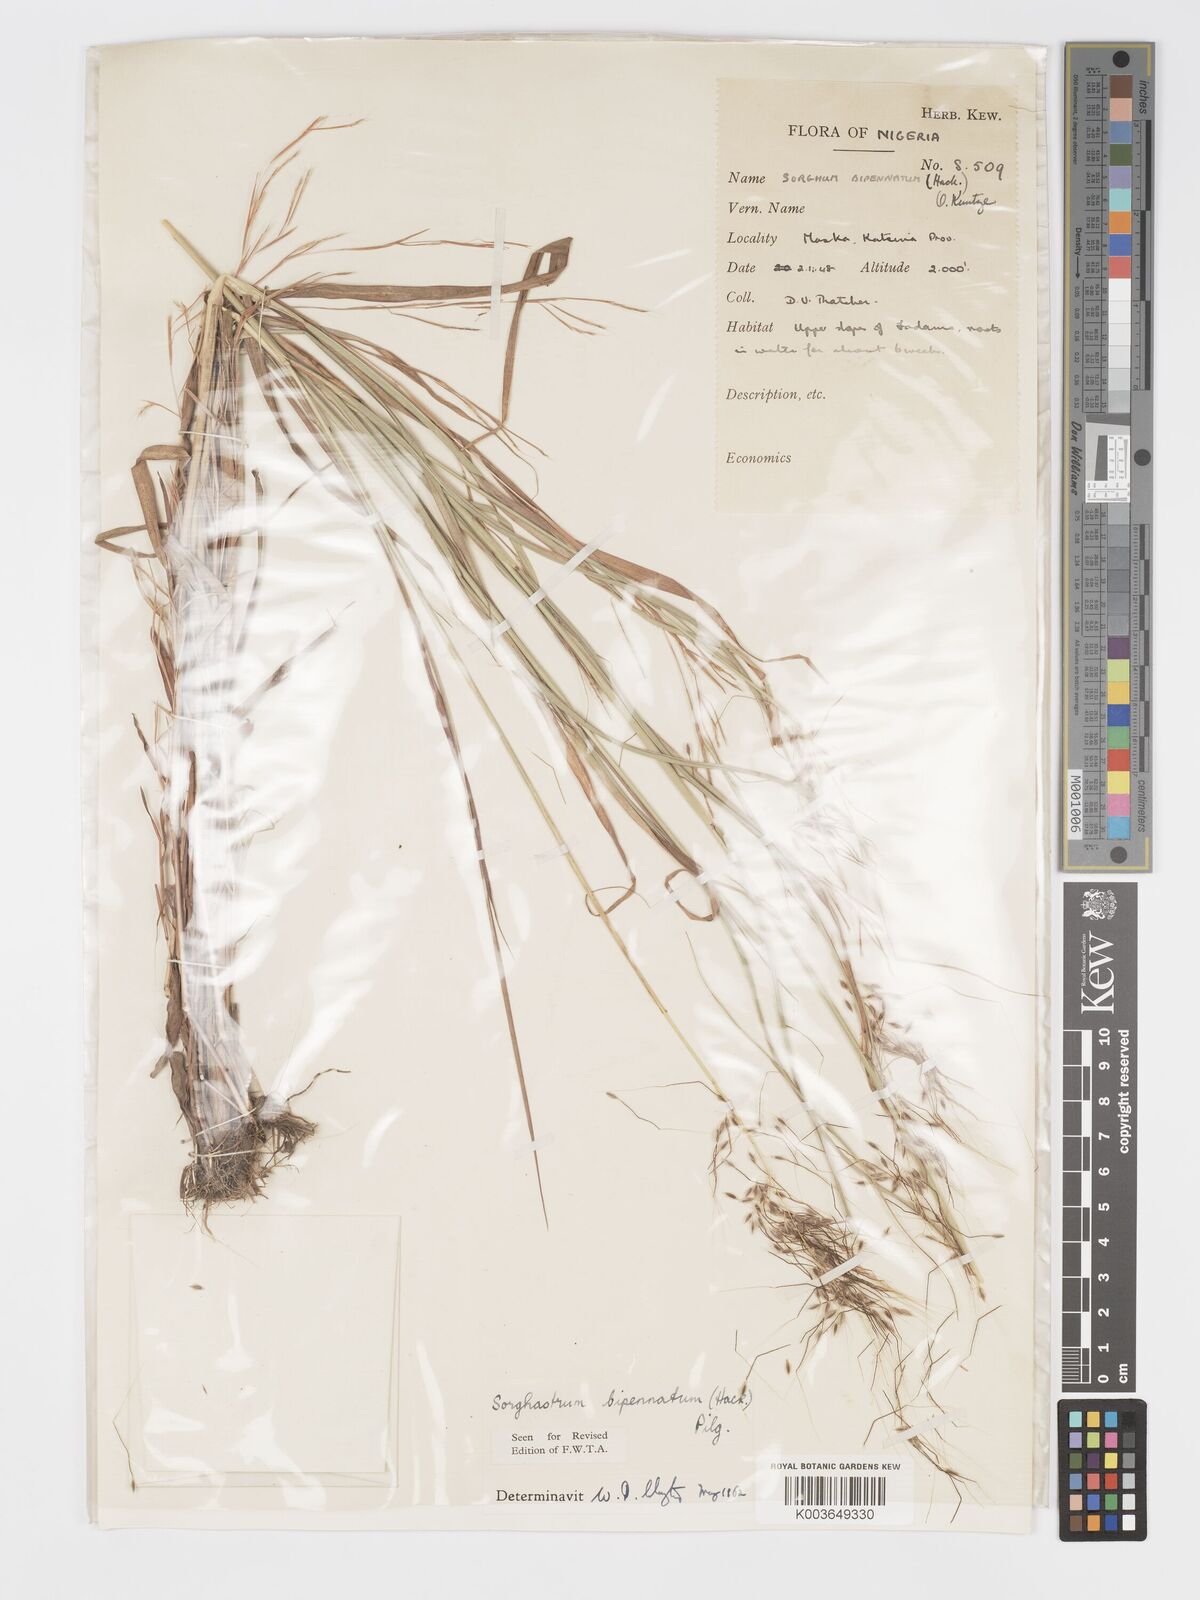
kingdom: Plantae
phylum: Tracheophyta
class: Liliopsida
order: Poales
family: Poaceae
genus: Sorghastrum
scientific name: Sorghastrum incompletum
